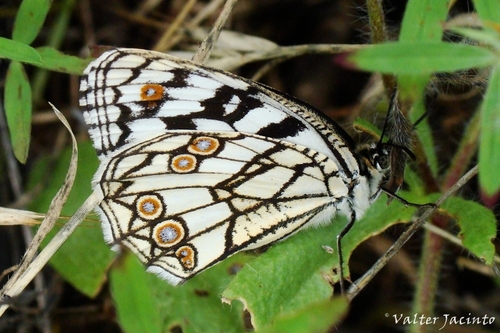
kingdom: Animalia
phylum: Arthropoda
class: Insecta
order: Lepidoptera
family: Nymphalidae
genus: Melanargia
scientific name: Melanargia ines
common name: Spanish marbled white
